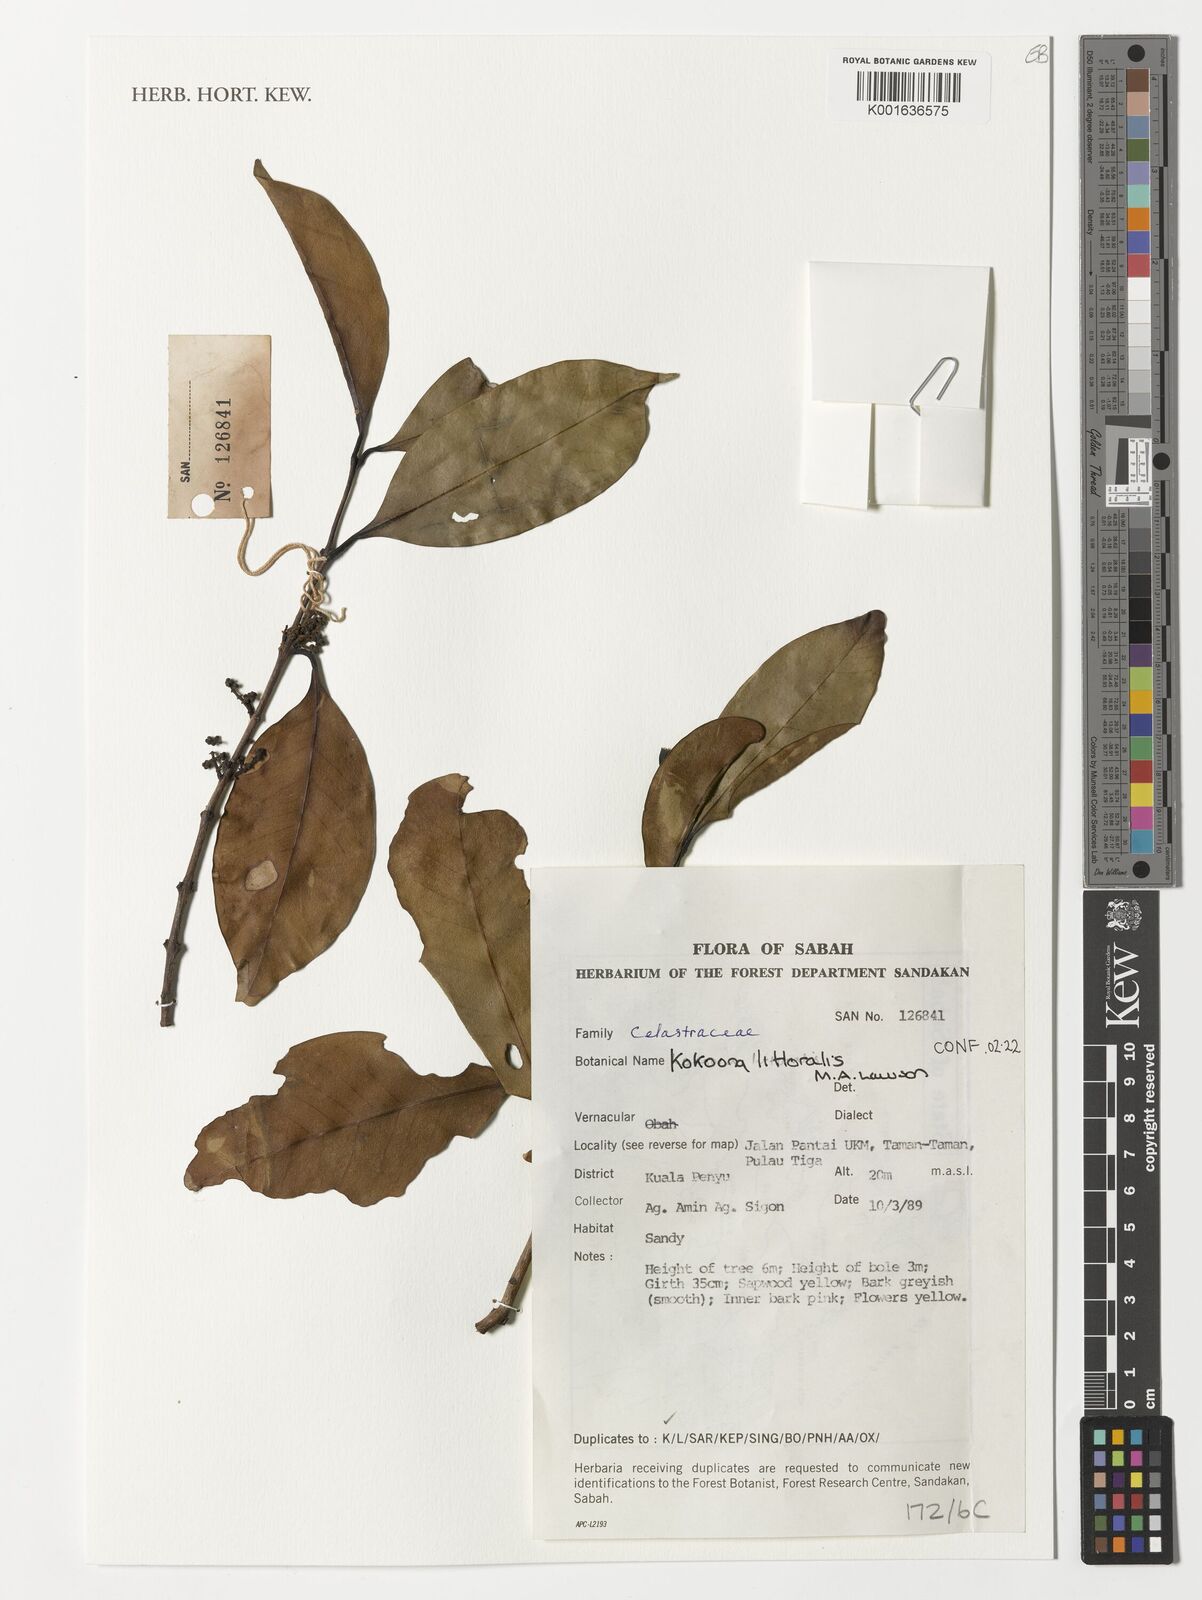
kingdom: Plantae
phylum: Tracheophyta
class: Magnoliopsida
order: Celastrales
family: Celastraceae
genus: Kokoona
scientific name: Kokoona littoralis
